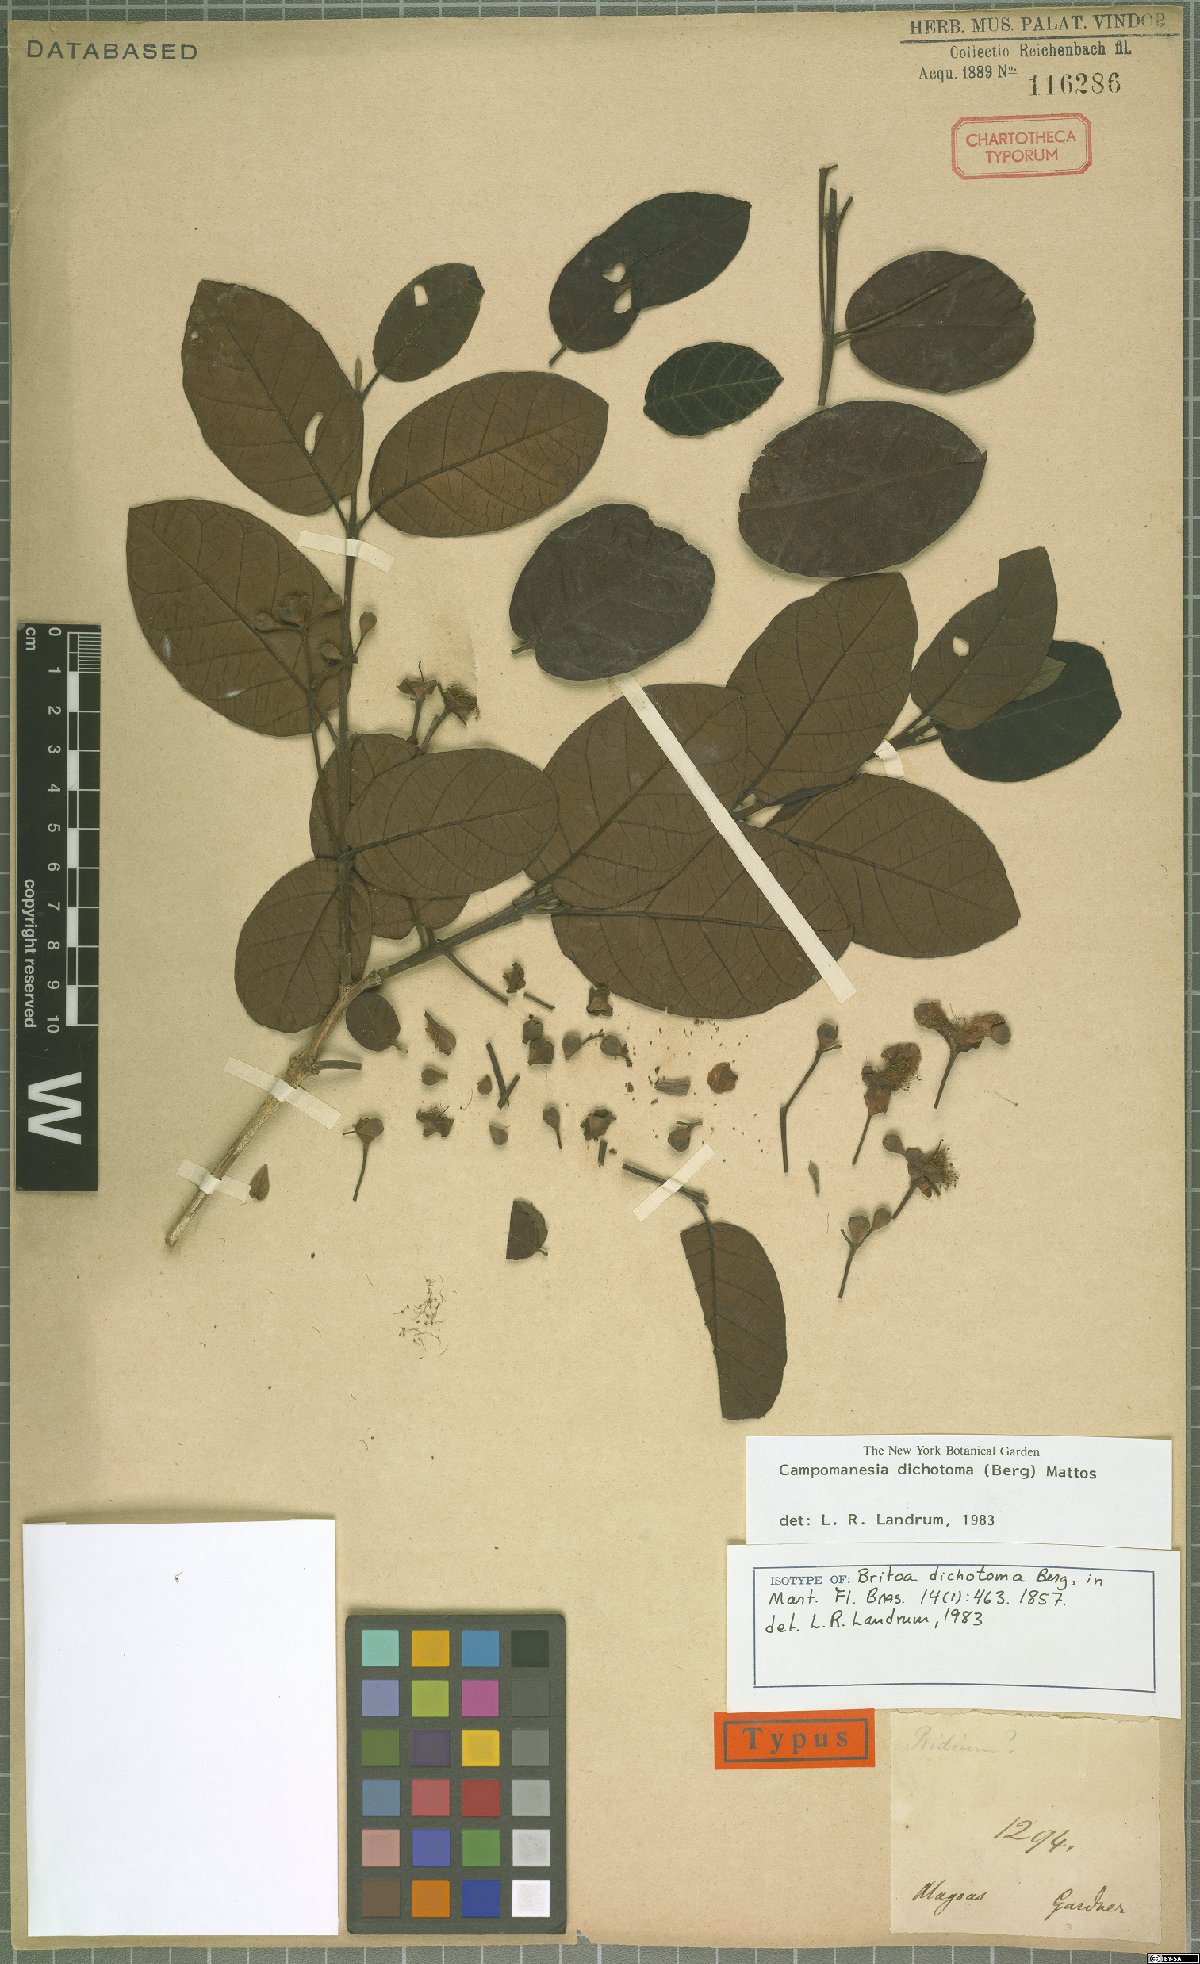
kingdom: Plantae
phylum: Tracheophyta
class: Magnoliopsida
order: Myrtales
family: Myrtaceae
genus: Campomanesia
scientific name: Campomanesia dichotoma
